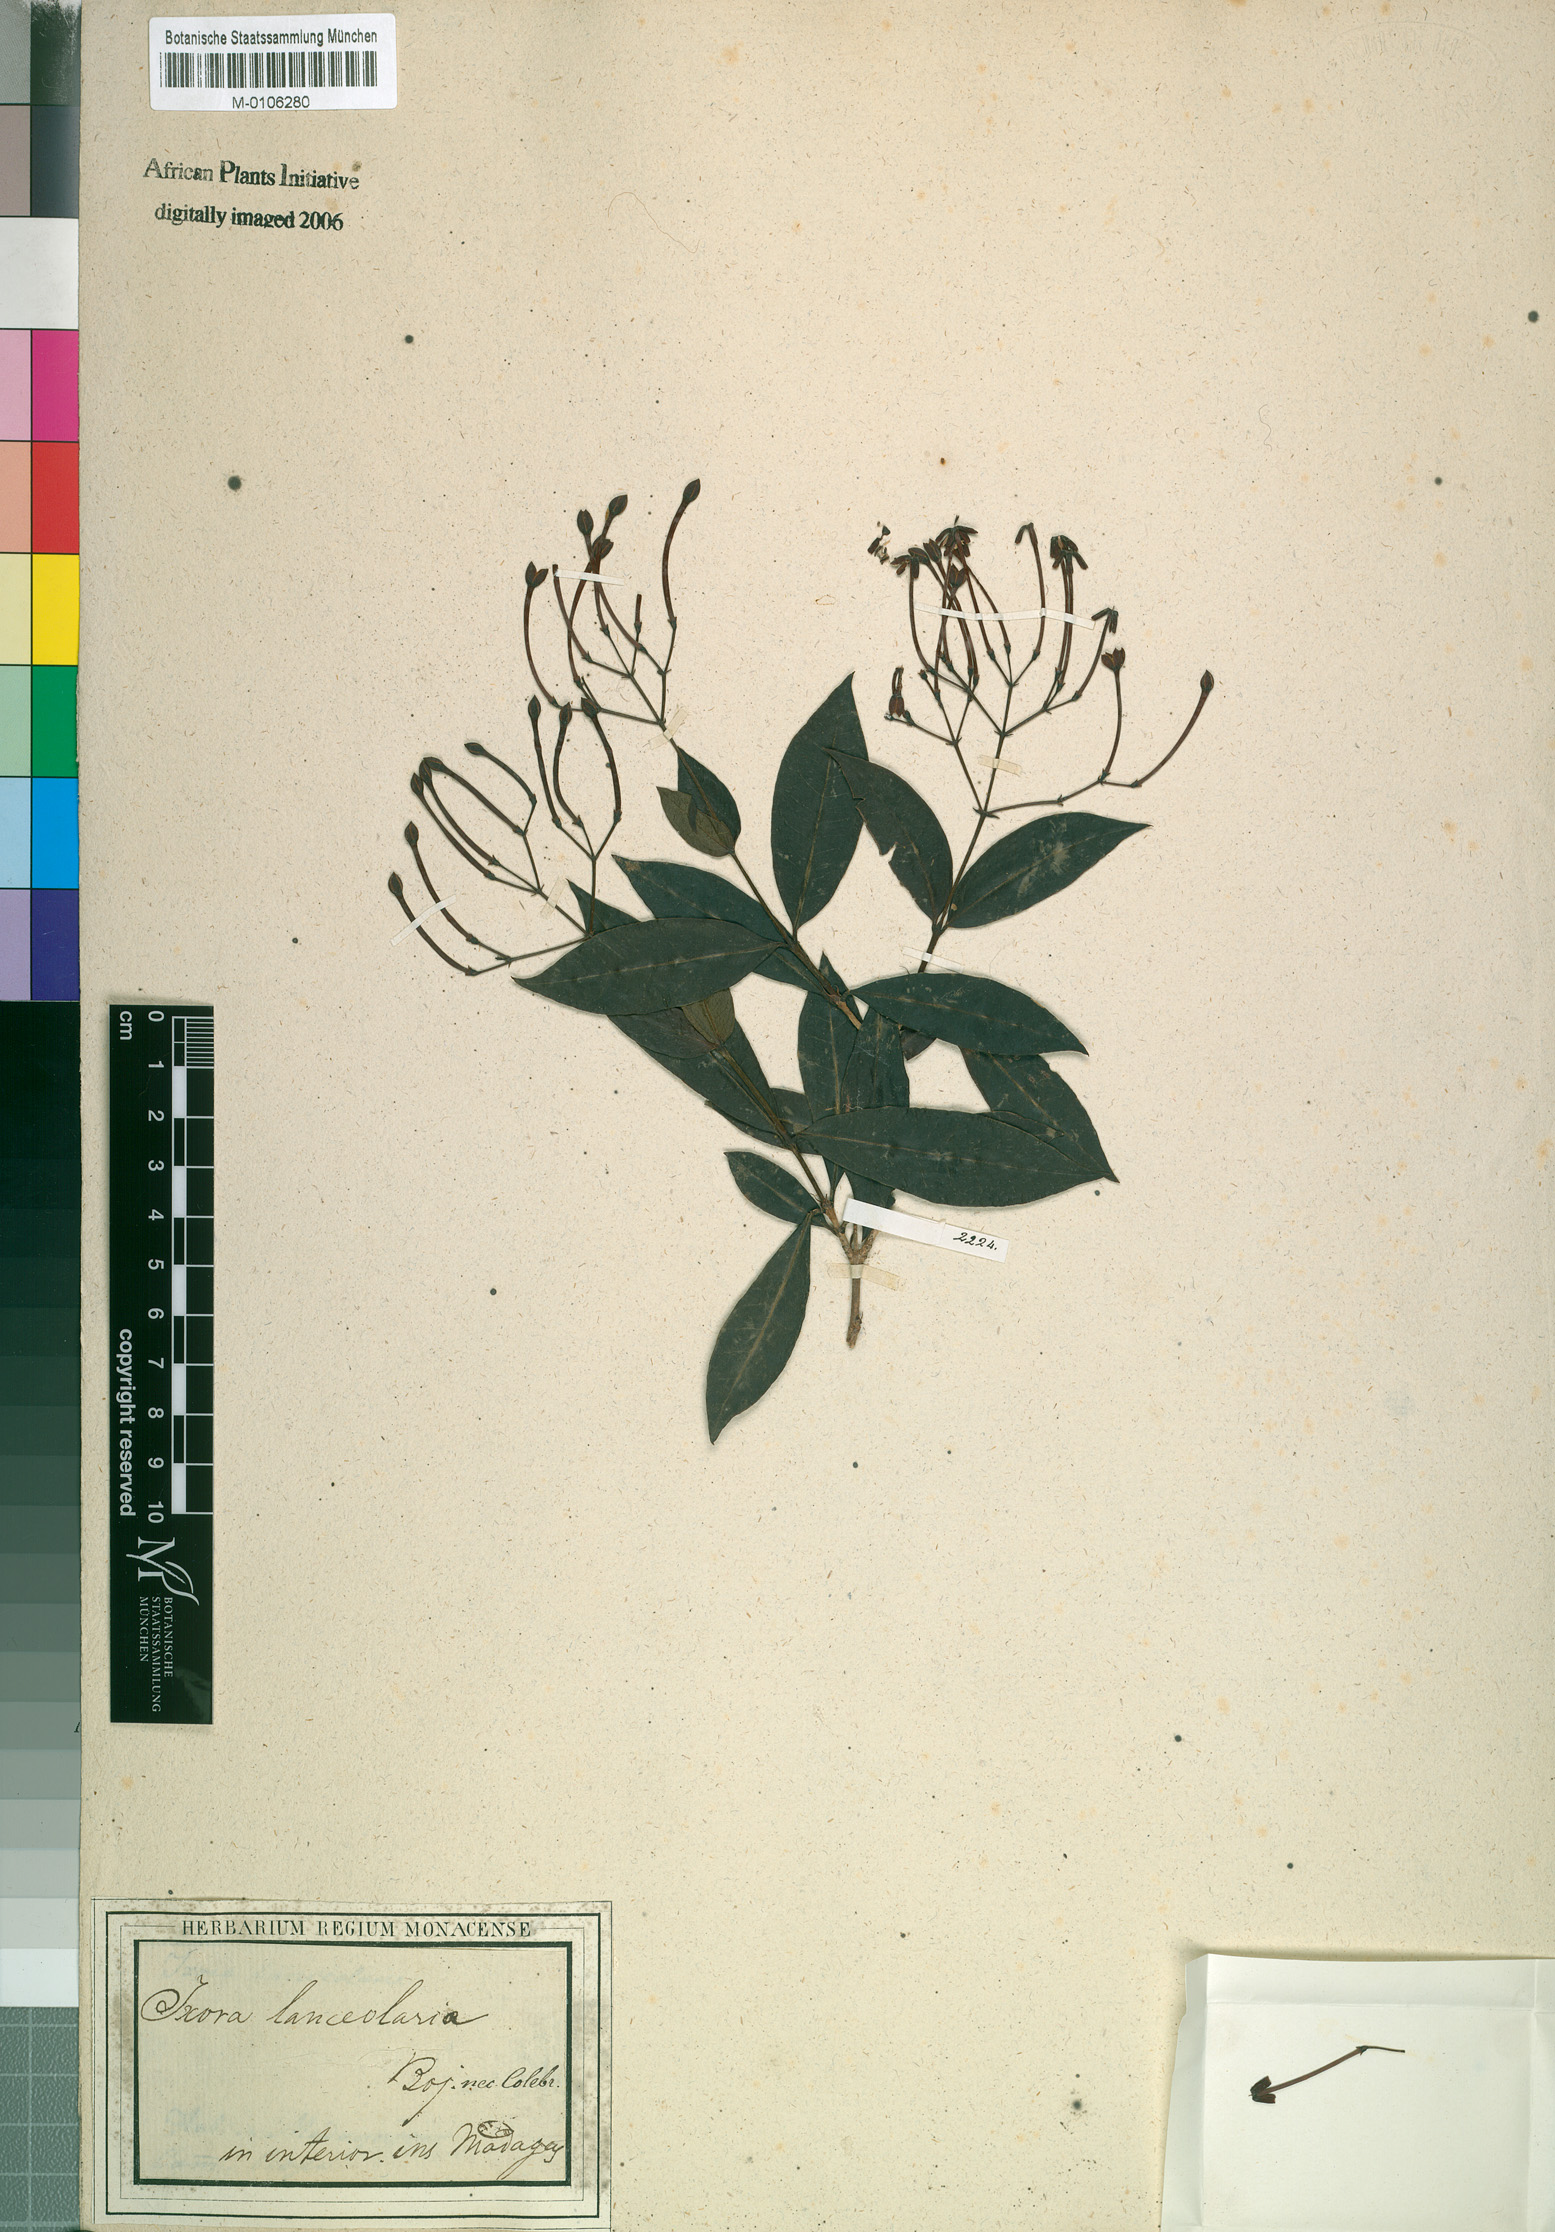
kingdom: Plantae
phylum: Tracheophyta
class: Magnoliopsida
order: Gentianales
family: Rubiaceae
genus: Ixora
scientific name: Ixora
